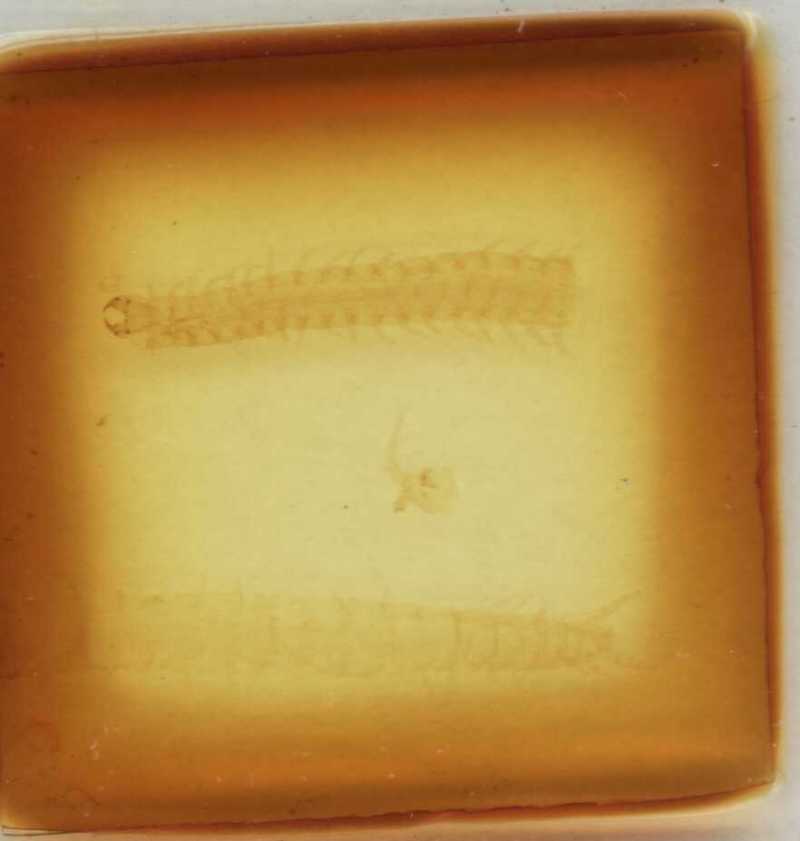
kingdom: Animalia
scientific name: Animalia
